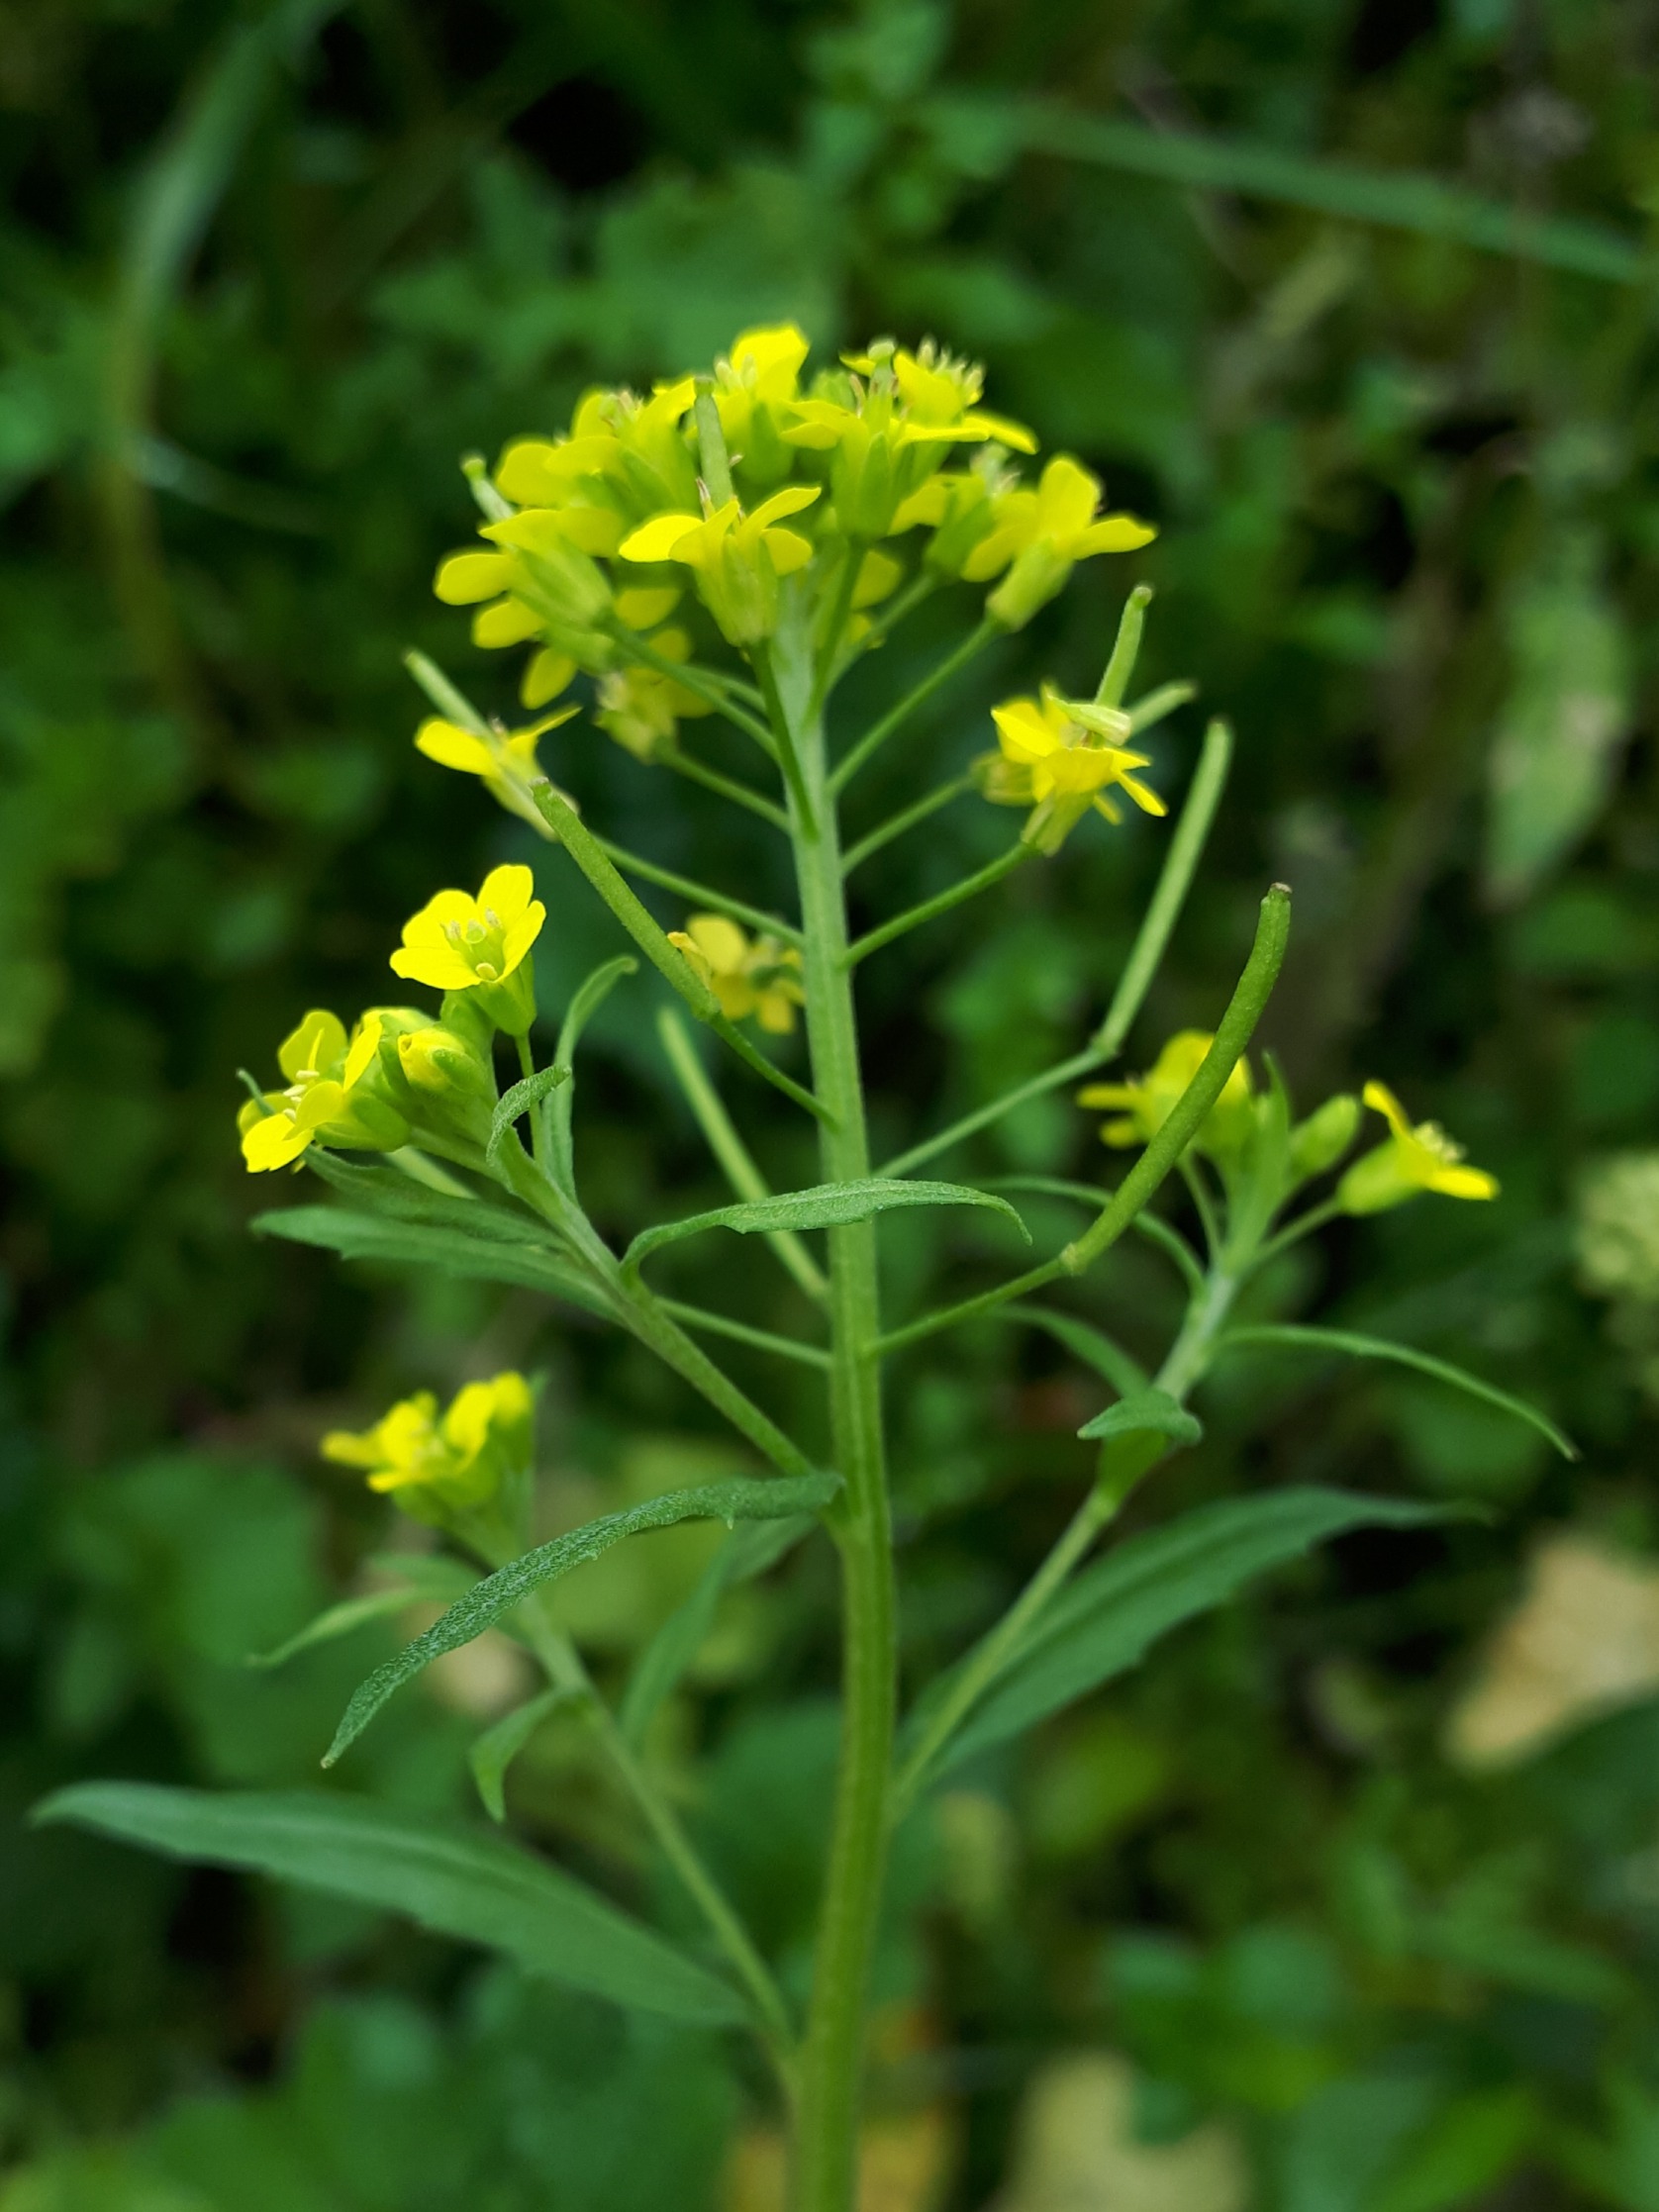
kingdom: Plantae
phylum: Tracheophyta
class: Magnoliopsida
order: Brassicales
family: Brassicaceae
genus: Erysimum
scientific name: Erysimum cheiranthoides
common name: Gyldenlak-hjørneklap
